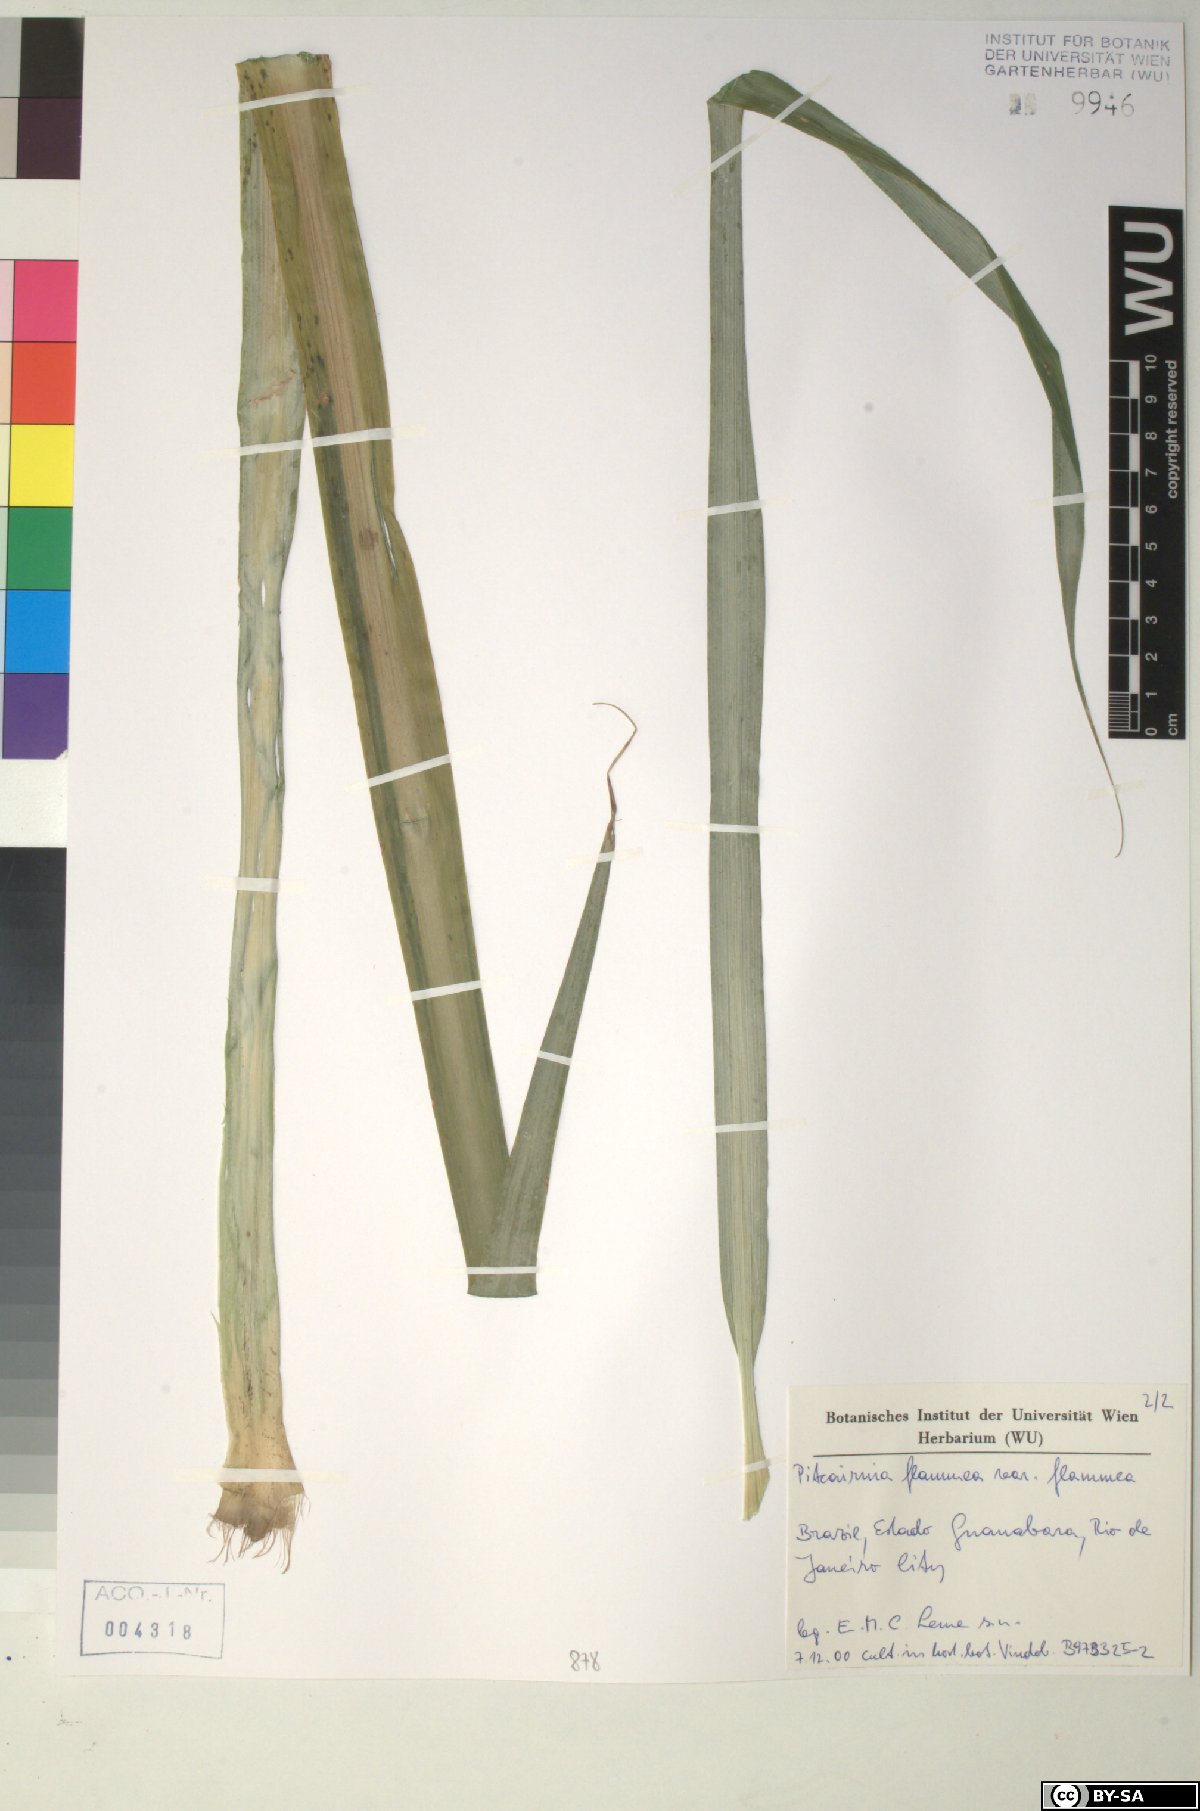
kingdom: Plantae
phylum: Tracheophyta
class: Liliopsida
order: Poales
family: Bromeliaceae
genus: Pitcairnia
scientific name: Pitcairnia
